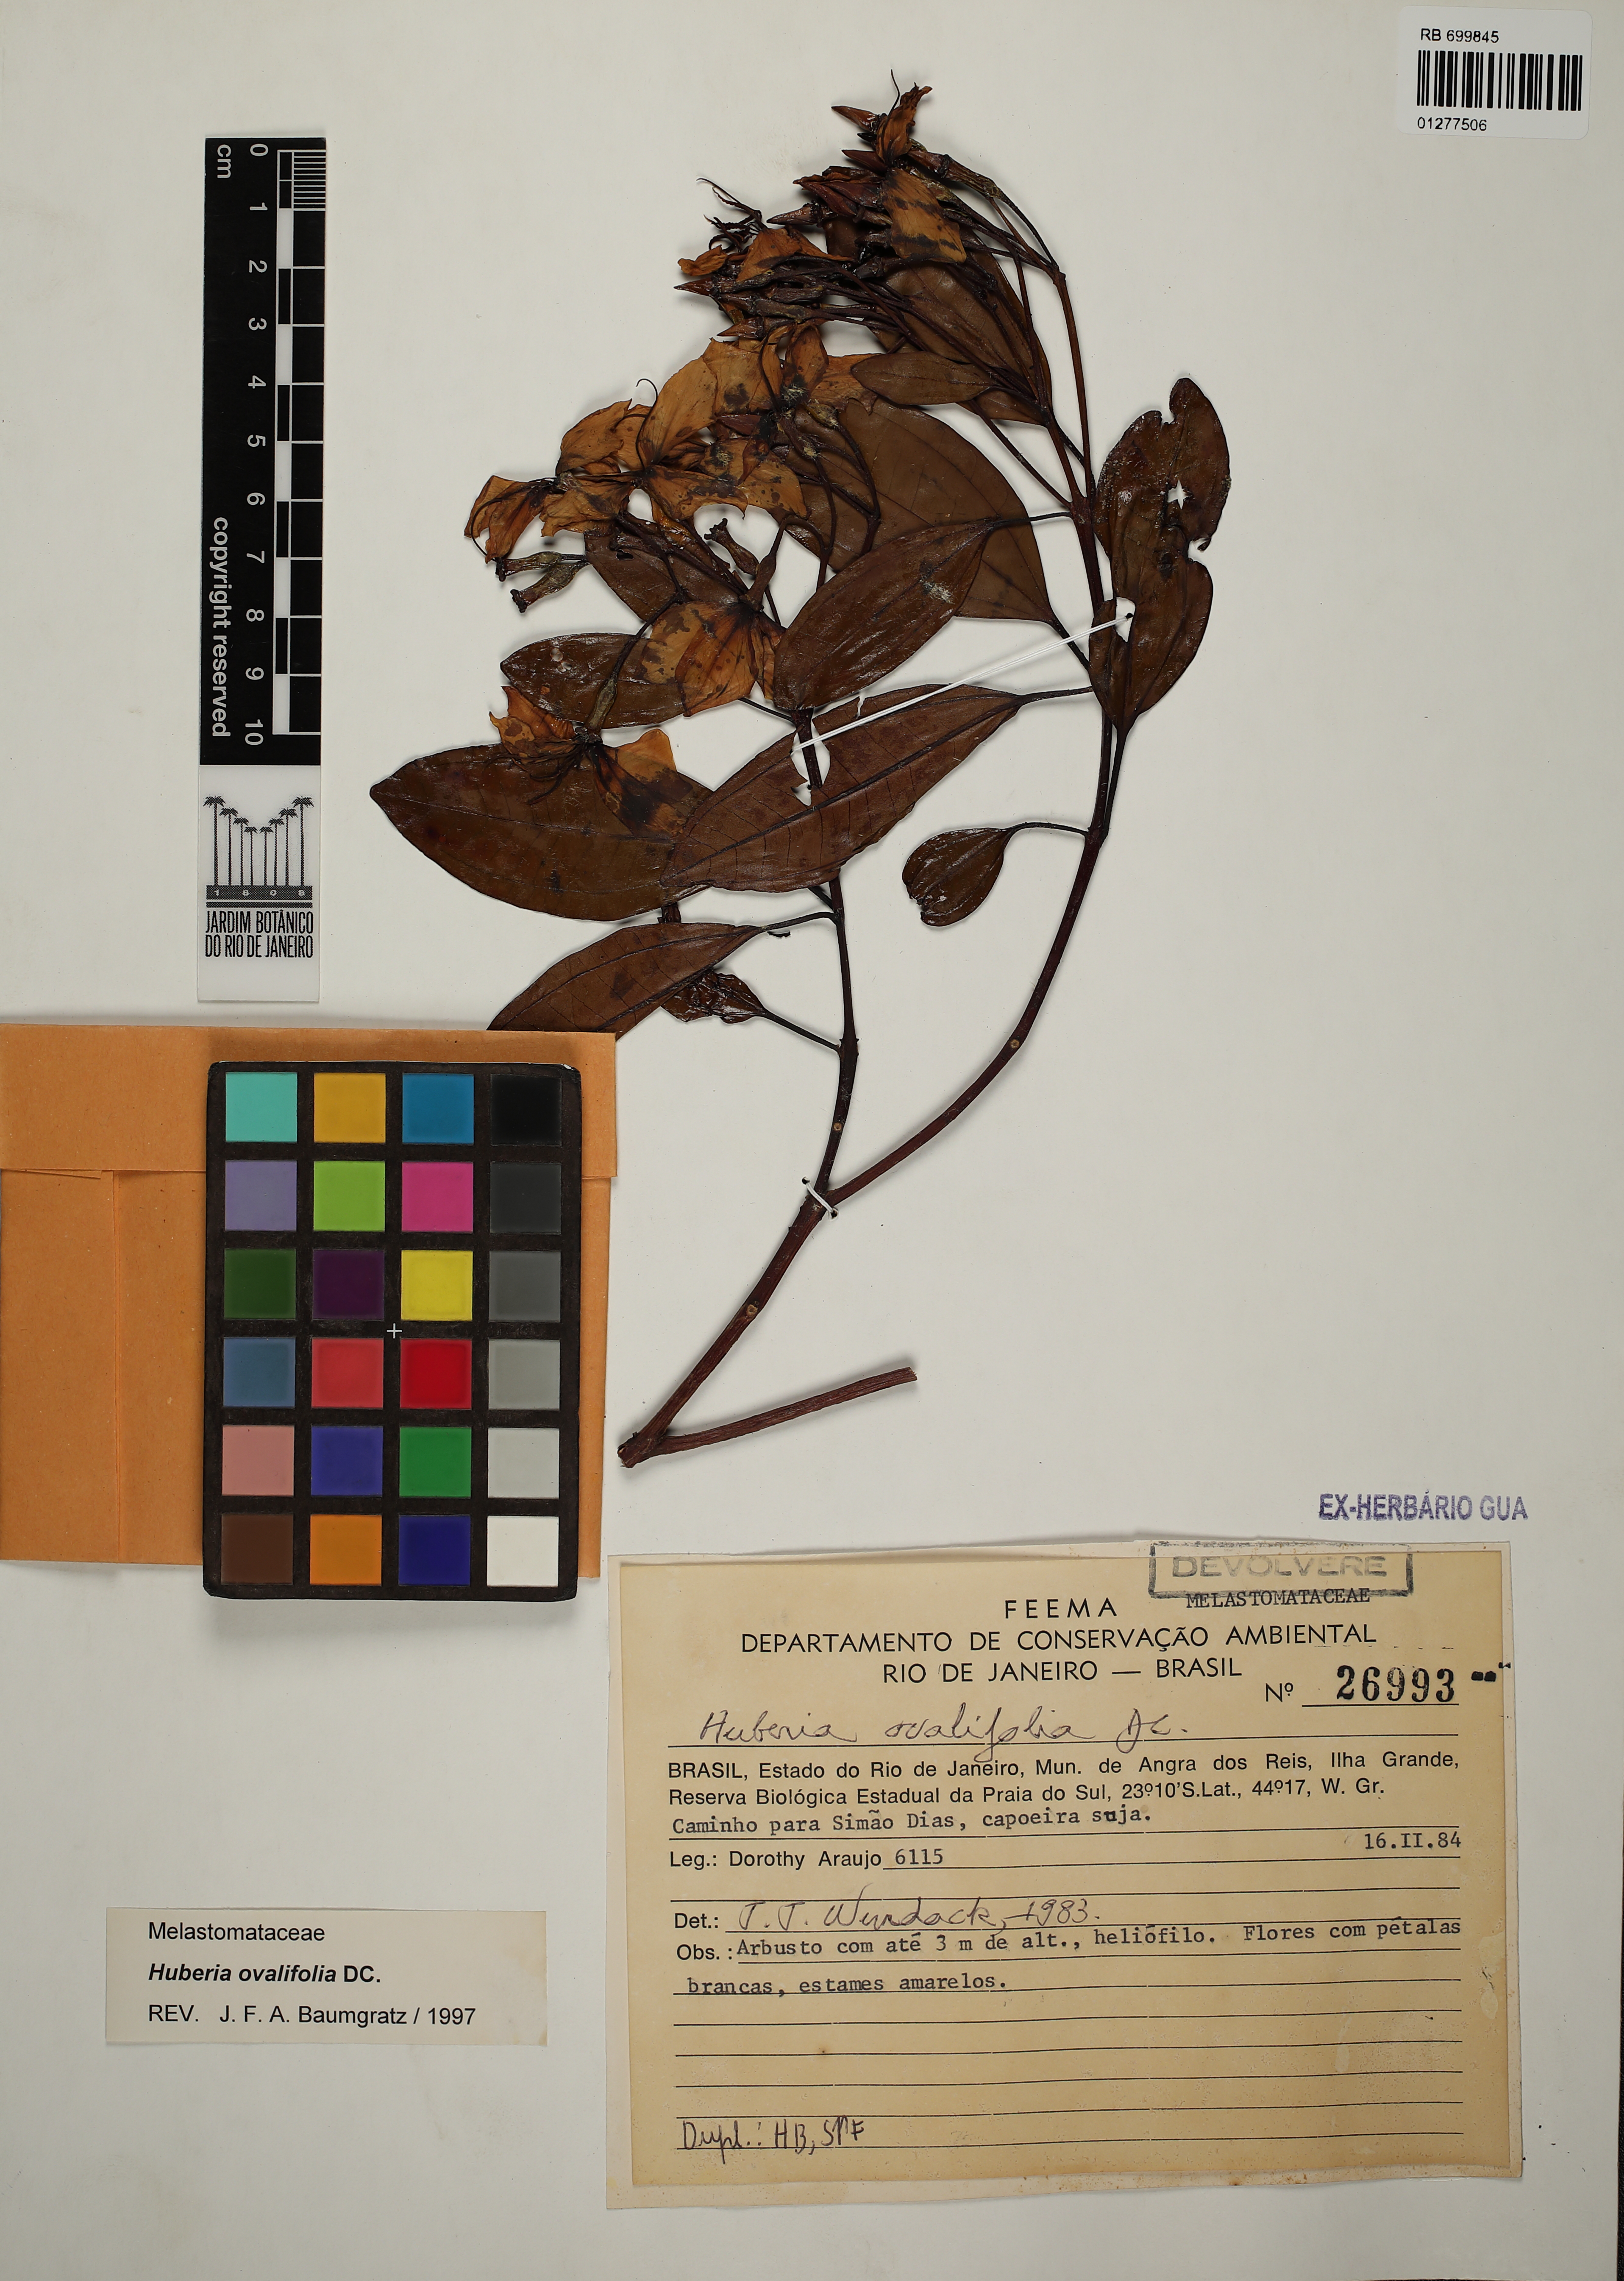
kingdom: Plantae
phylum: Tracheophyta
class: Magnoliopsida
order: Myrtales
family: Melastomataceae
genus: Huberia
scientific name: Huberia ovalifolia
